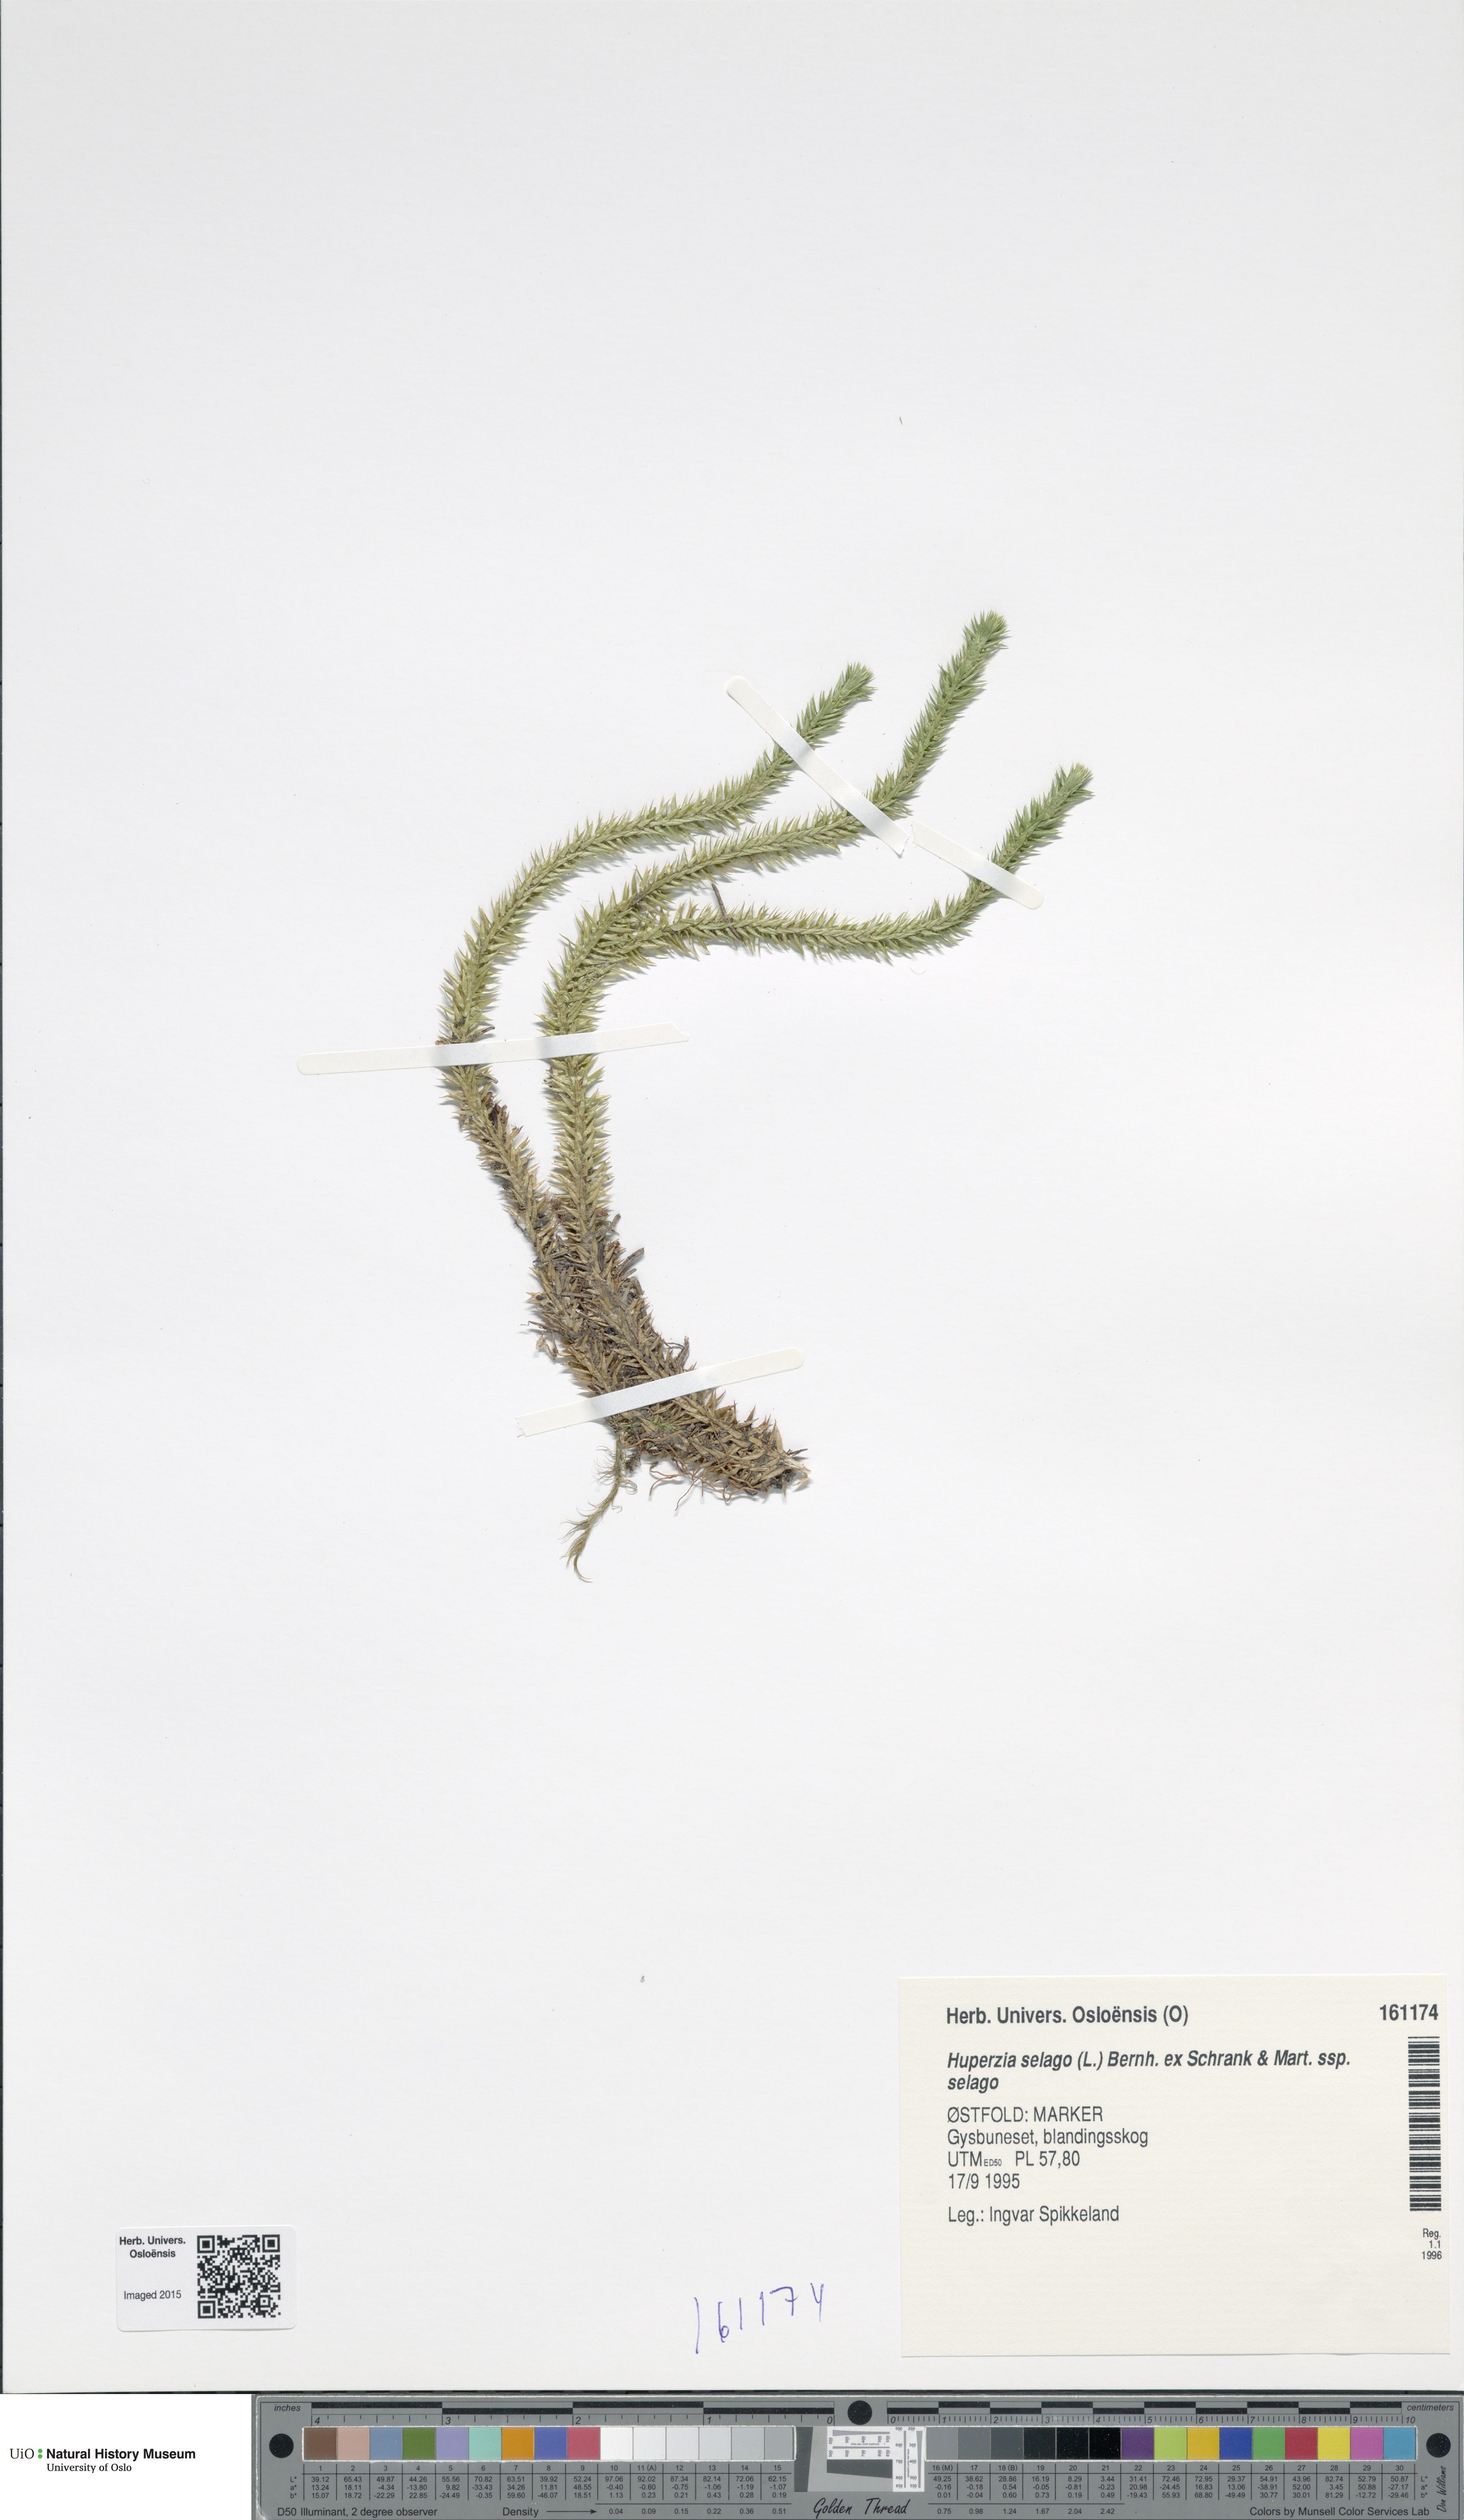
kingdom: Plantae
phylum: Tracheophyta
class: Lycopodiopsida
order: Lycopodiales
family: Lycopodiaceae
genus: Huperzia
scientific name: Huperzia selago
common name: Northern firmoss
